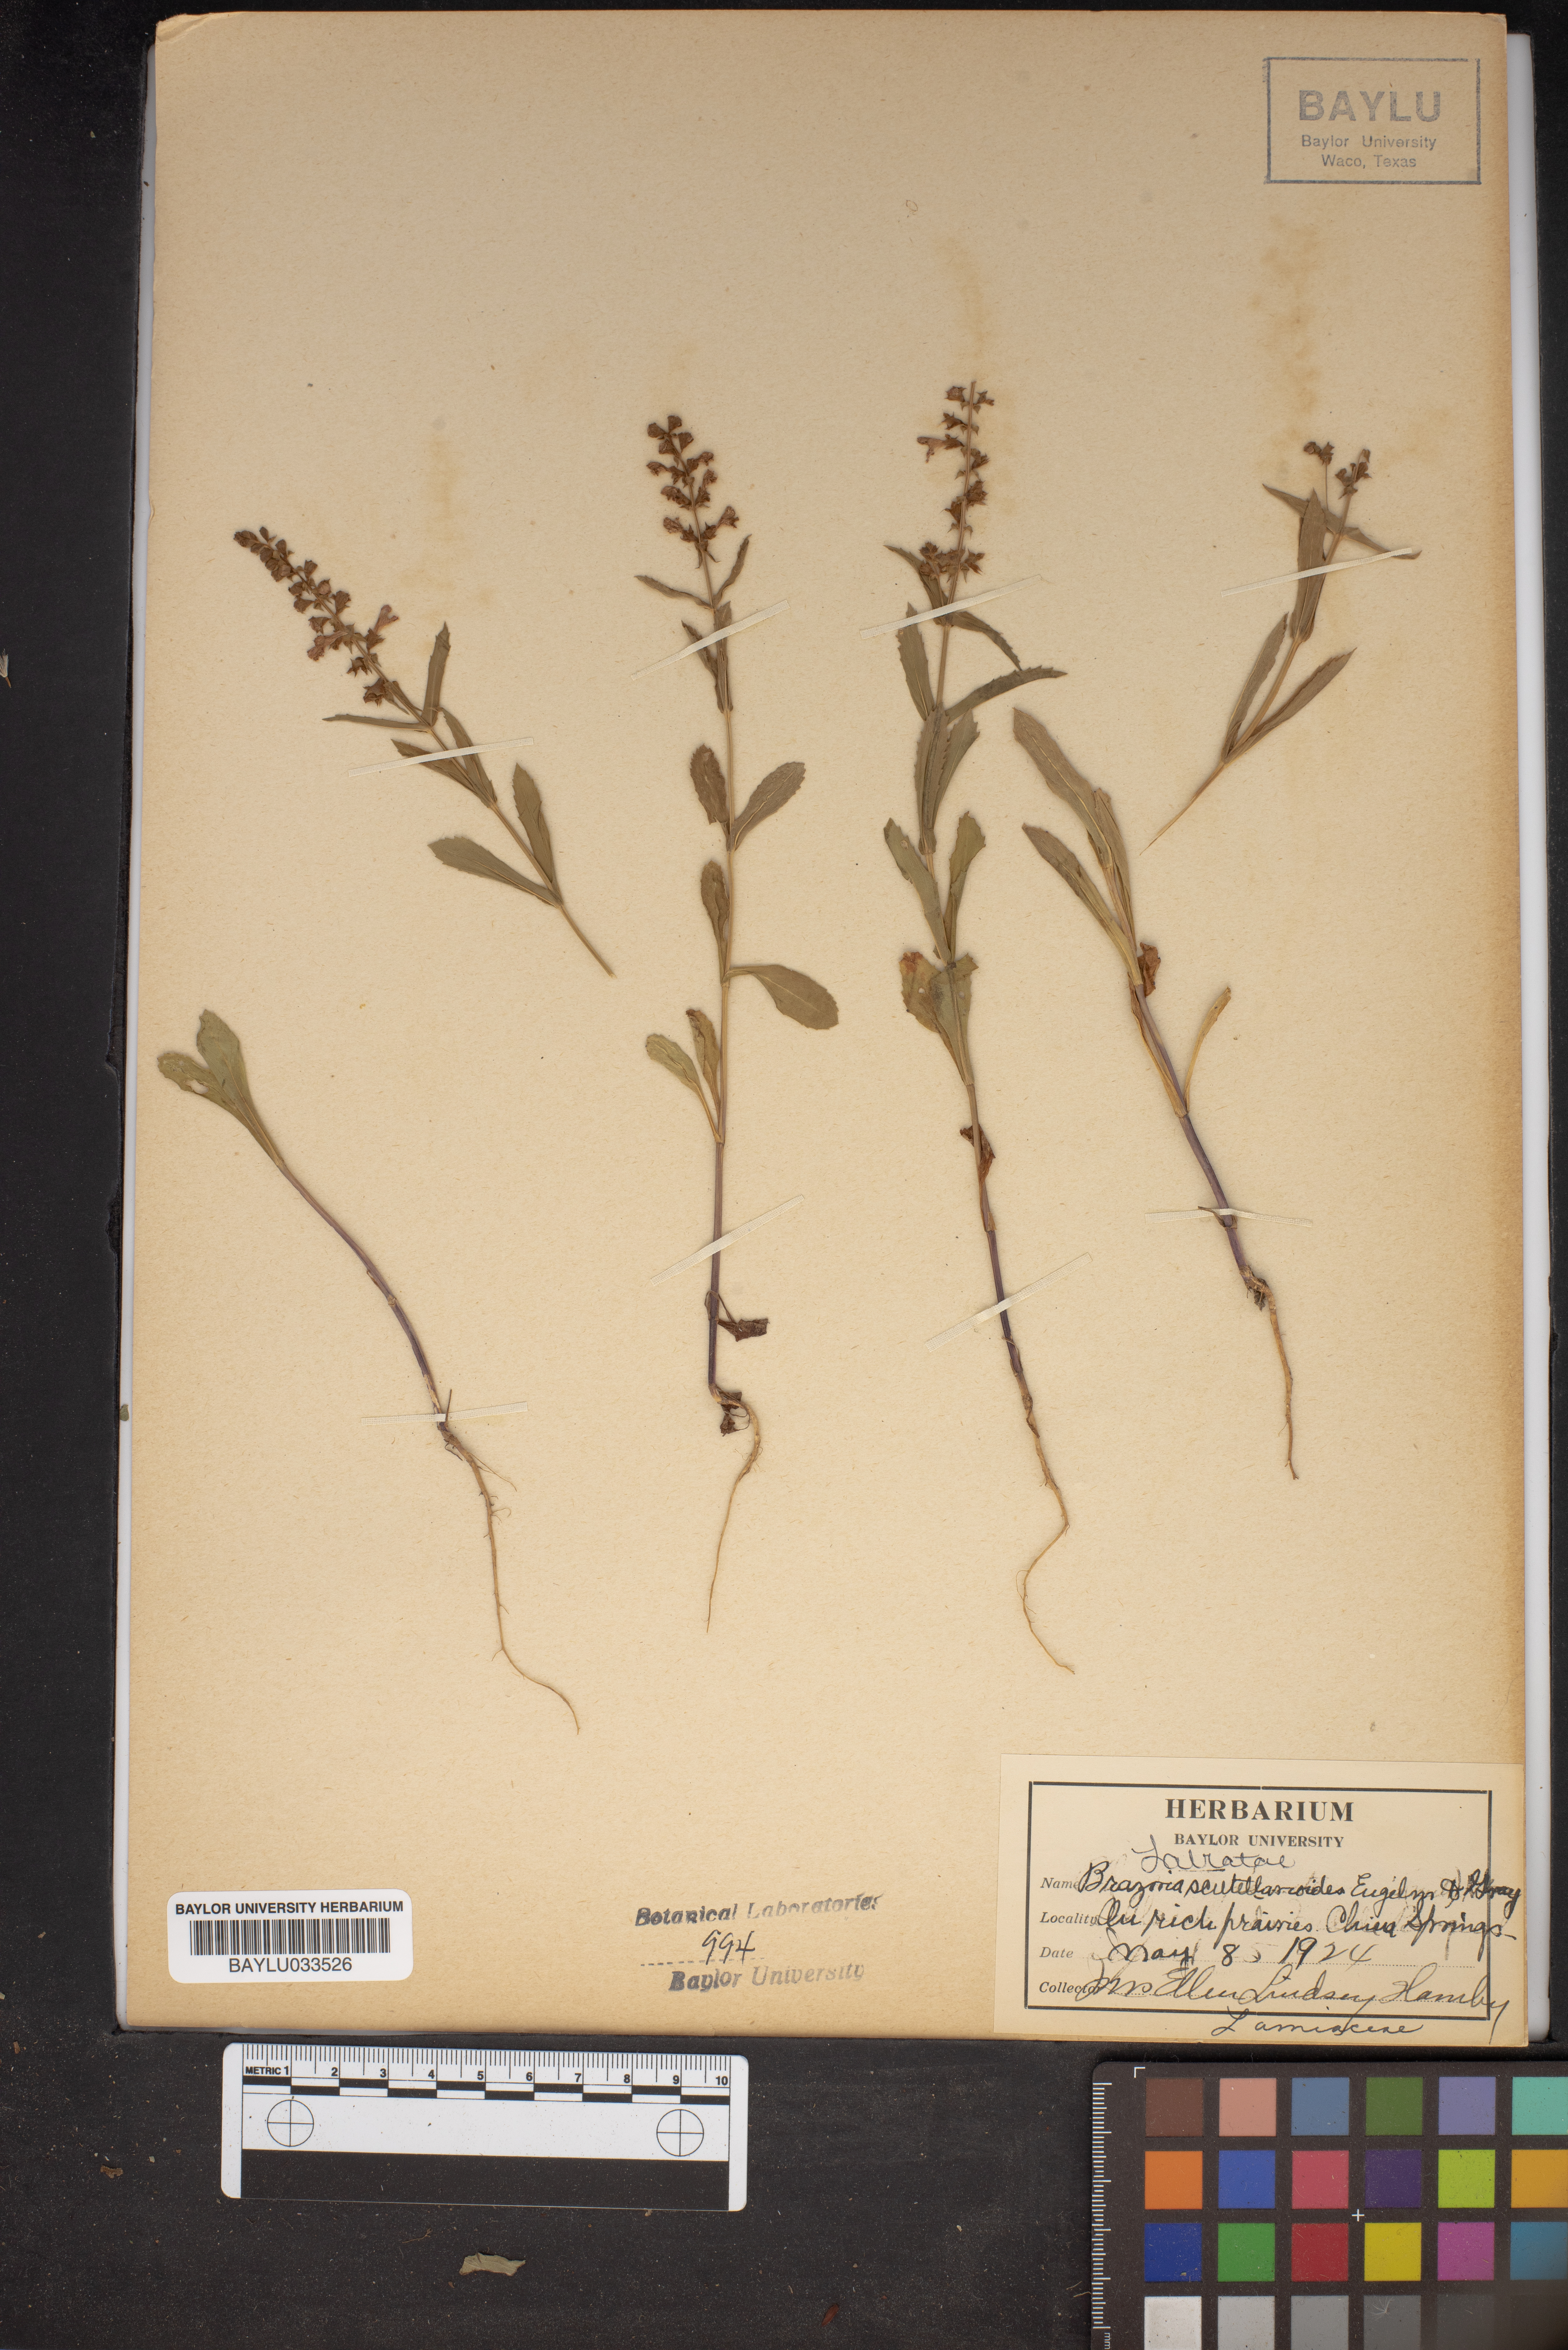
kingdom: Plantae
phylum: Tracheophyta
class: Magnoliopsida
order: Lamiales
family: Lamiaceae
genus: Warnockia
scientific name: Warnockia scutellarioides
